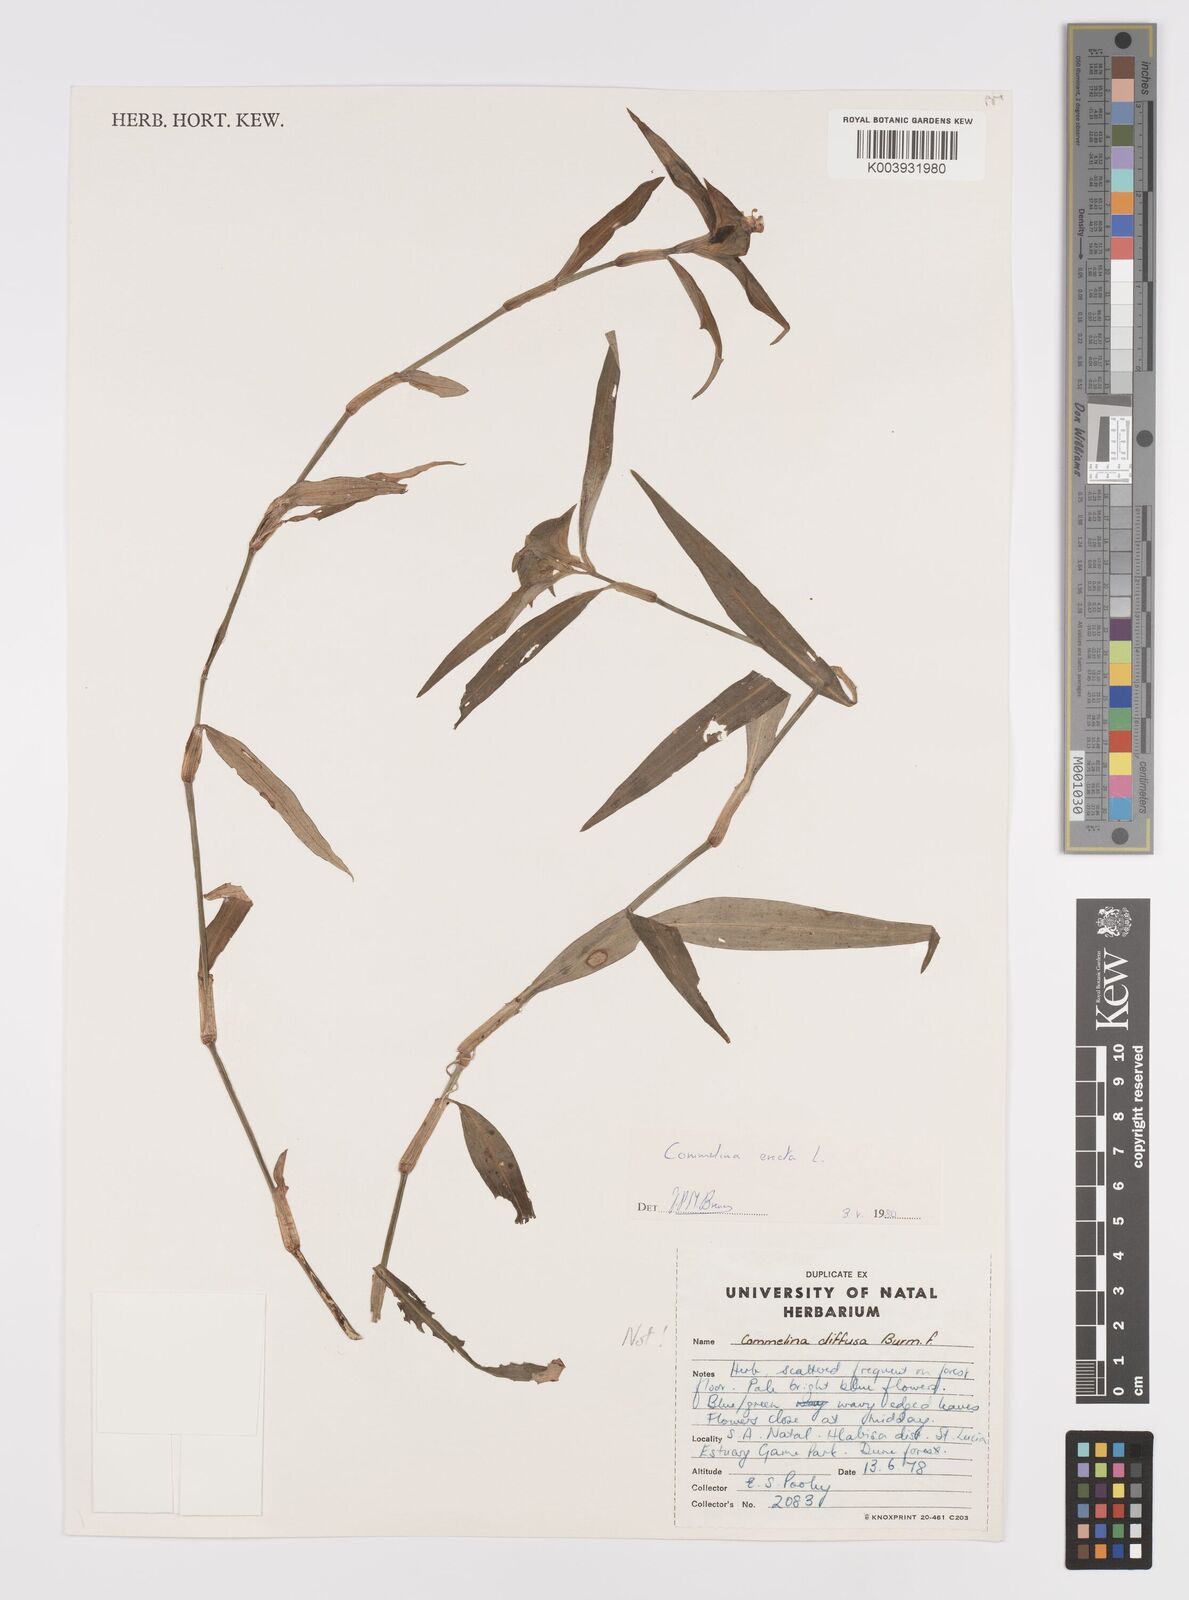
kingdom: Plantae
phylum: Tracheophyta
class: Liliopsida
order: Commelinales
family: Commelinaceae
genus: Commelina
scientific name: Commelina erecta
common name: Blousel blommetjie
